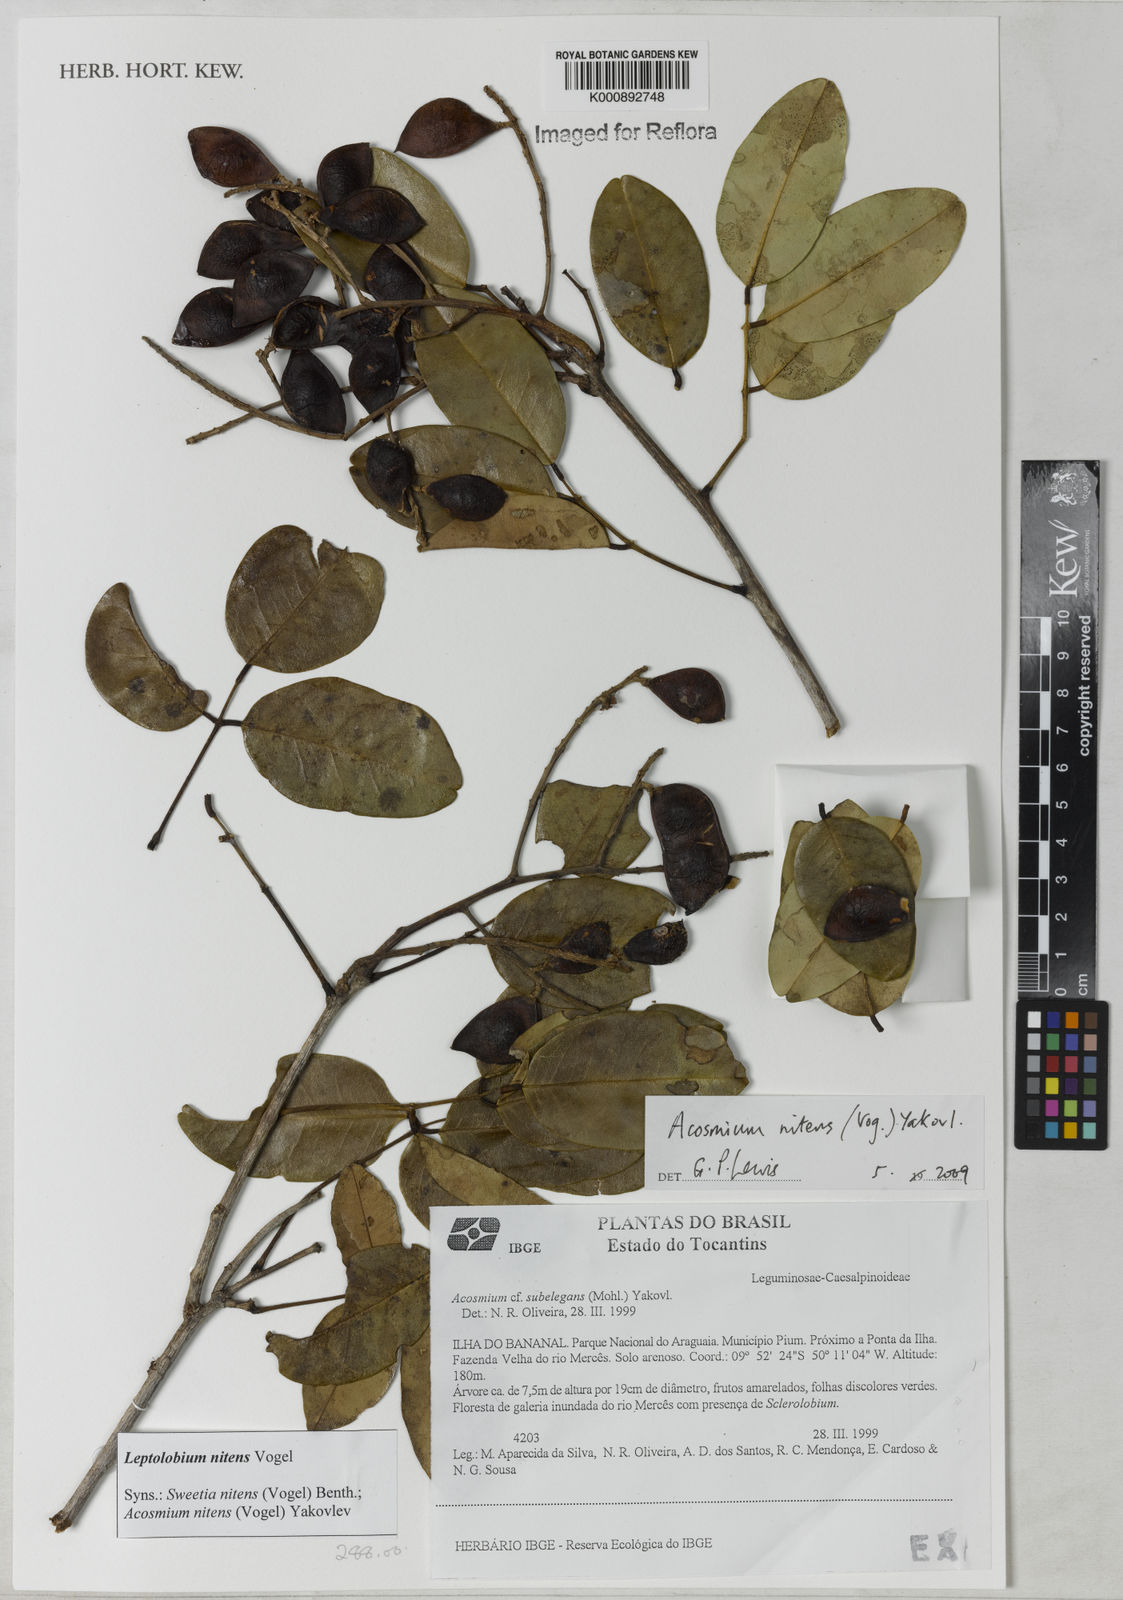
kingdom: Plantae
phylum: Tracheophyta
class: Magnoliopsida
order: Fabales
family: Fabaceae
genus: Leptolobium
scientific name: Leptolobium nitens
